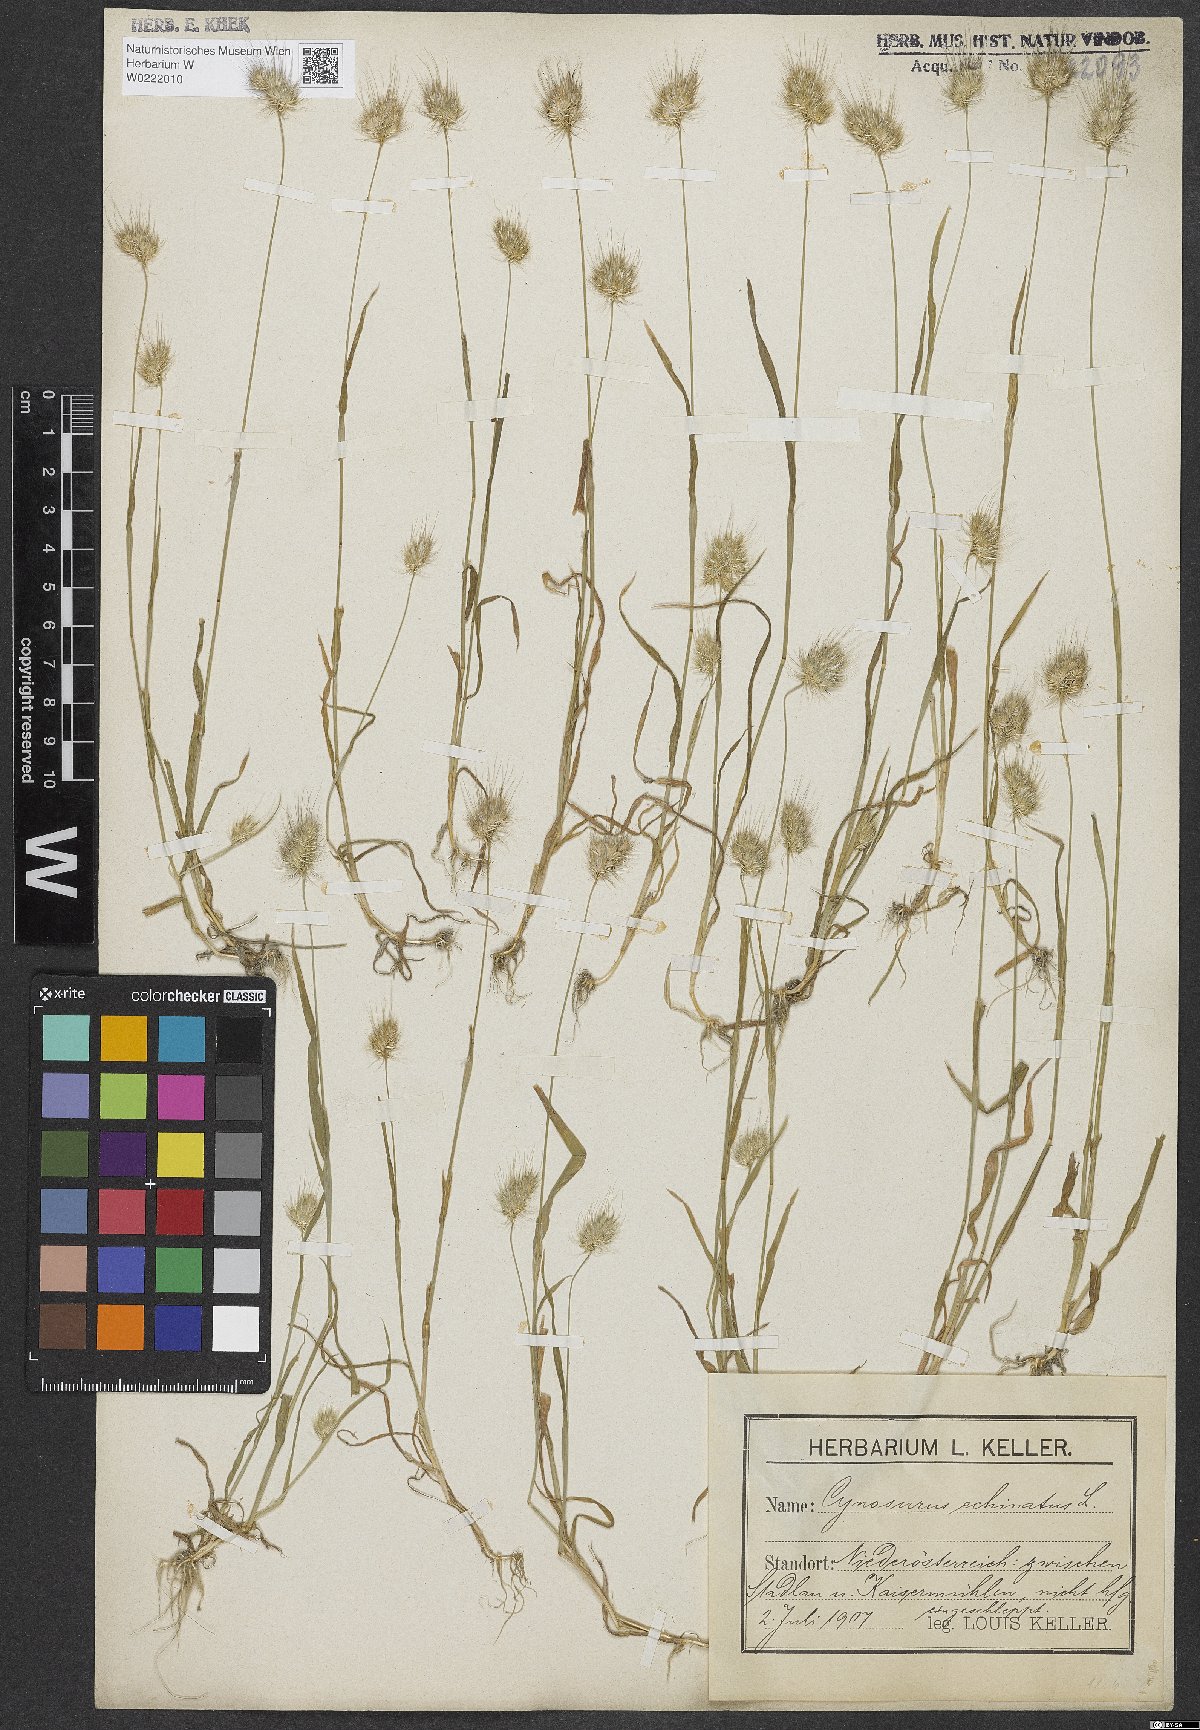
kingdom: Plantae
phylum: Tracheophyta
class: Liliopsida
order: Poales
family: Poaceae
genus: Cynosurus
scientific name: Cynosurus echinatus
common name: Rough dog's-tail
